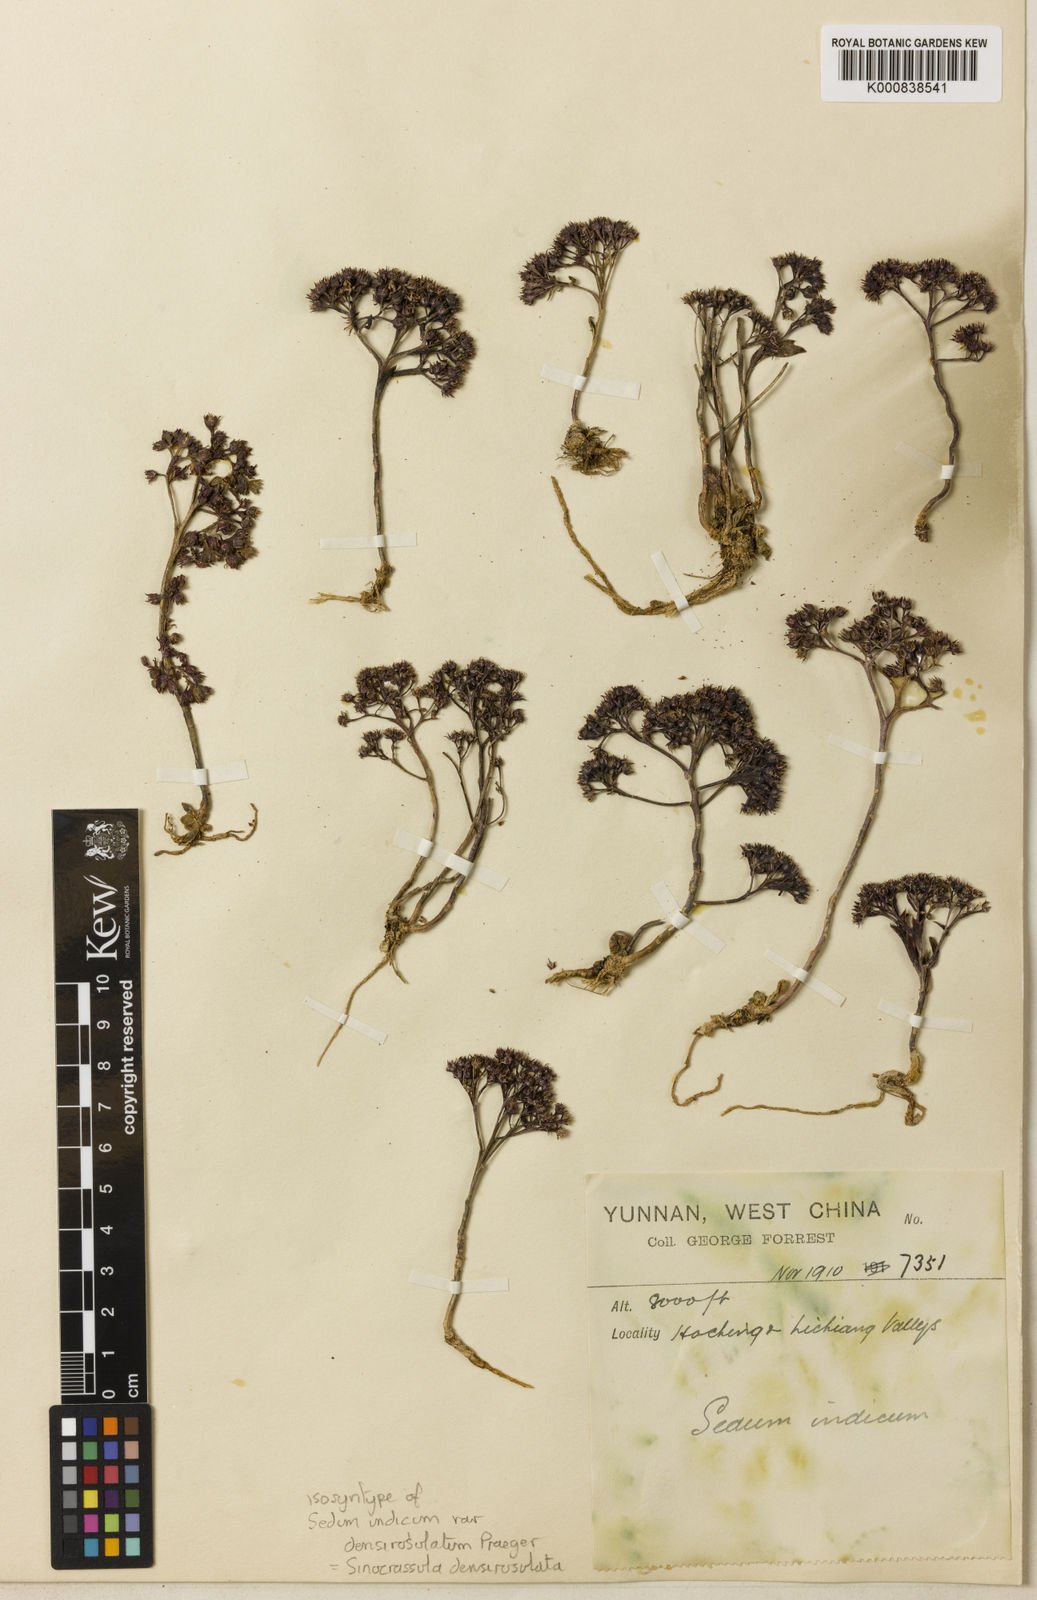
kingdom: Plantae
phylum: Tracheophyta
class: Magnoliopsida
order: Saxifragales
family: Crassulaceae
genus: Sinocrassula
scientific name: Sinocrassula densirosulata
